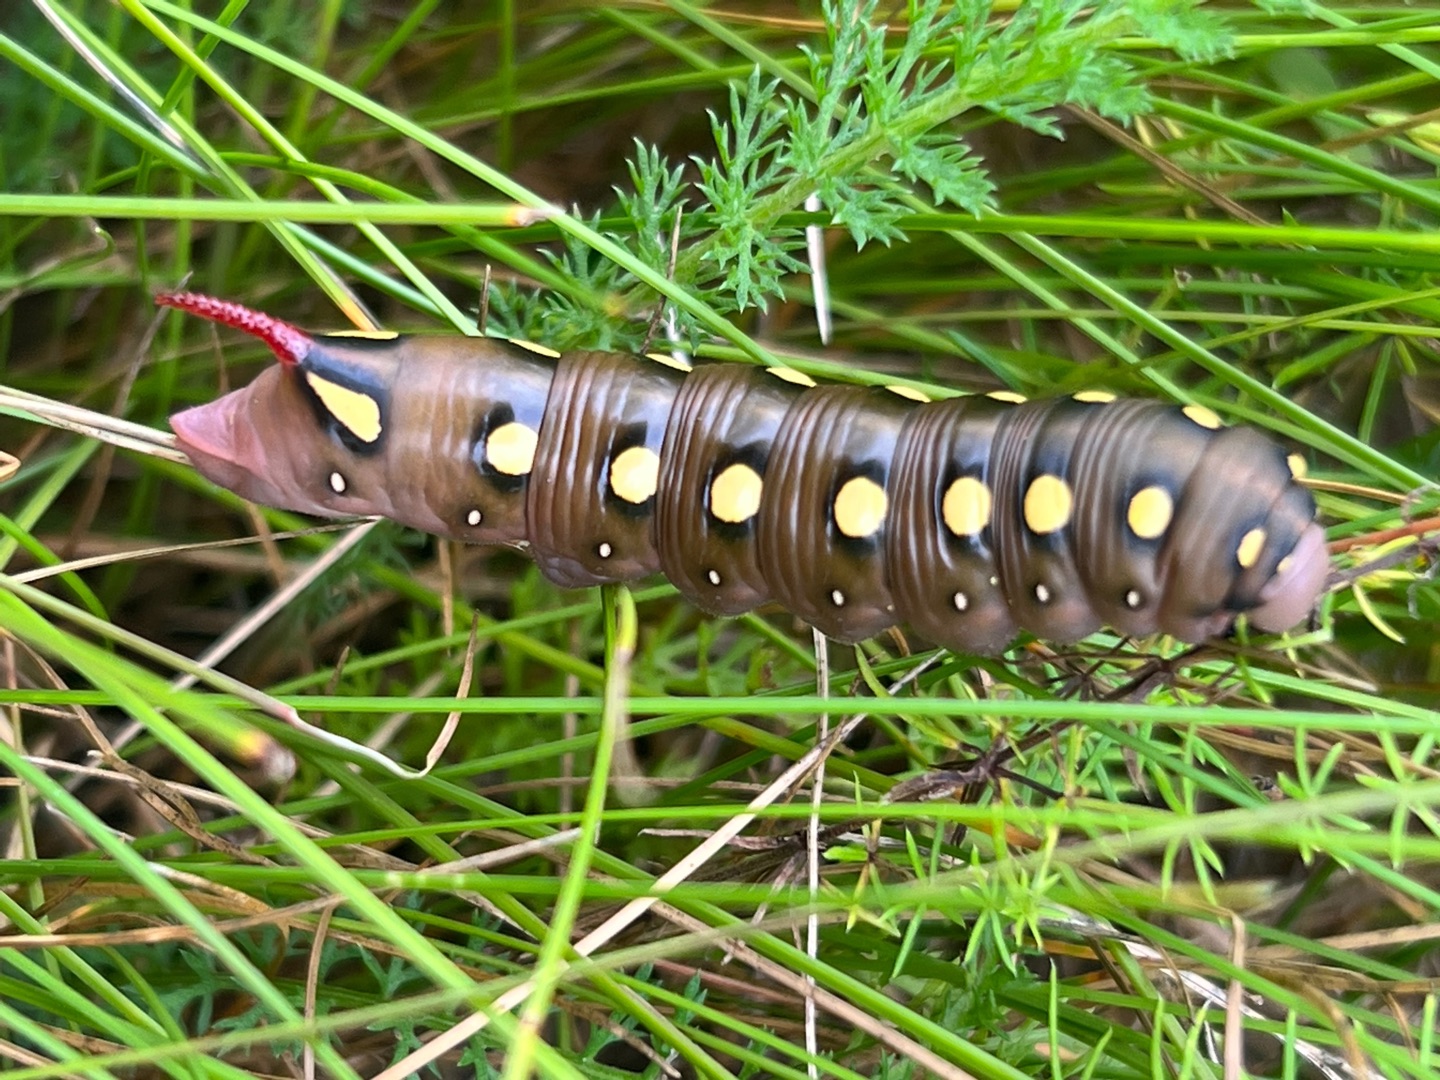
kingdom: Animalia
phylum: Arthropoda
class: Insecta
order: Lepidoptera
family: Sphingidae
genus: Hyles
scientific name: Hyles gallii
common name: Snerresværmer
